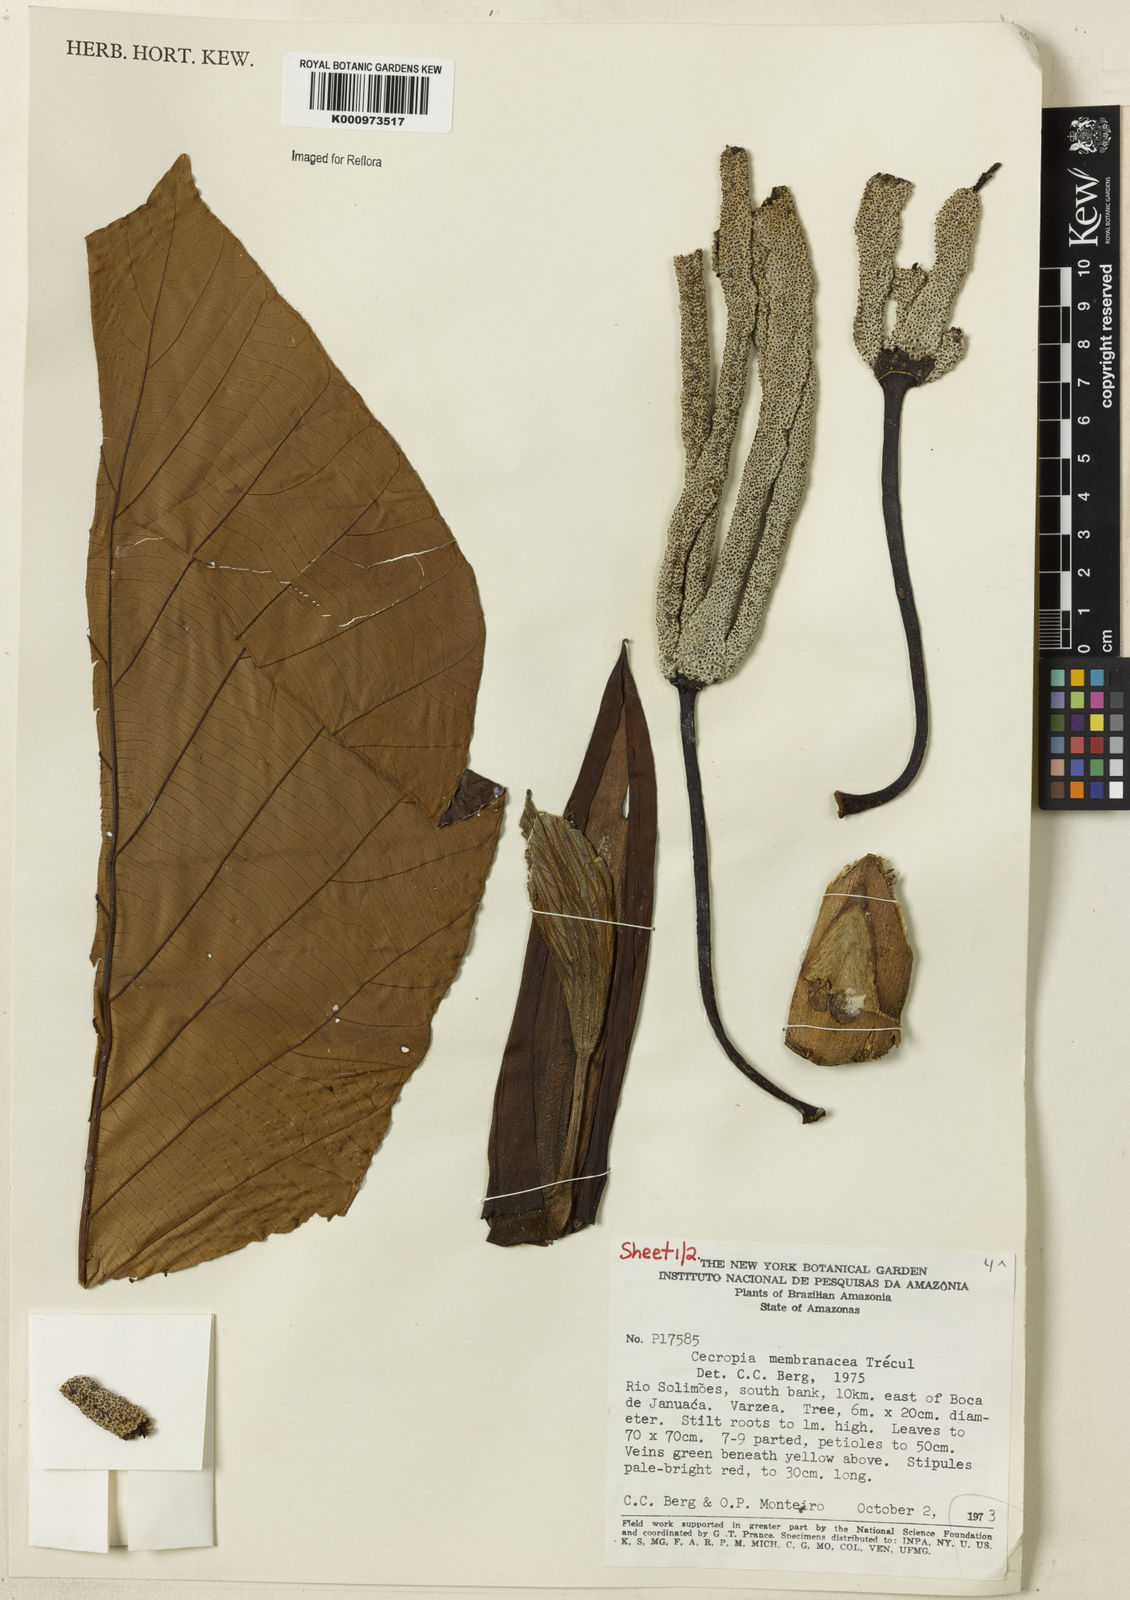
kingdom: Plantae
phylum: Tracheophyta
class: Magnoliopsida
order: Rosales
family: Urticaceae
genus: Cecropia
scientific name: Cecropia
